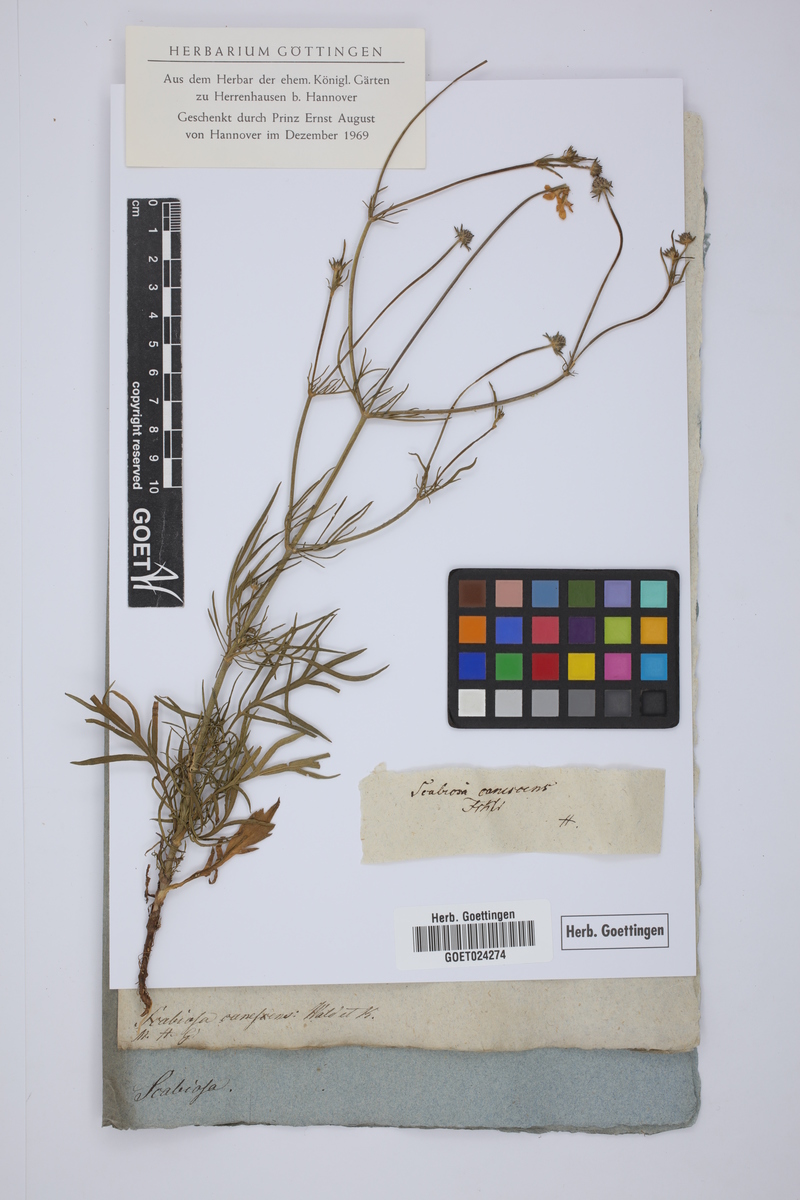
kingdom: Plantae
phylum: Tracheophyta
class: Magnoliopsida
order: Dipsacales
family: Caprifoliaceae
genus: Scabiosa
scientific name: Scabiosa canescens
